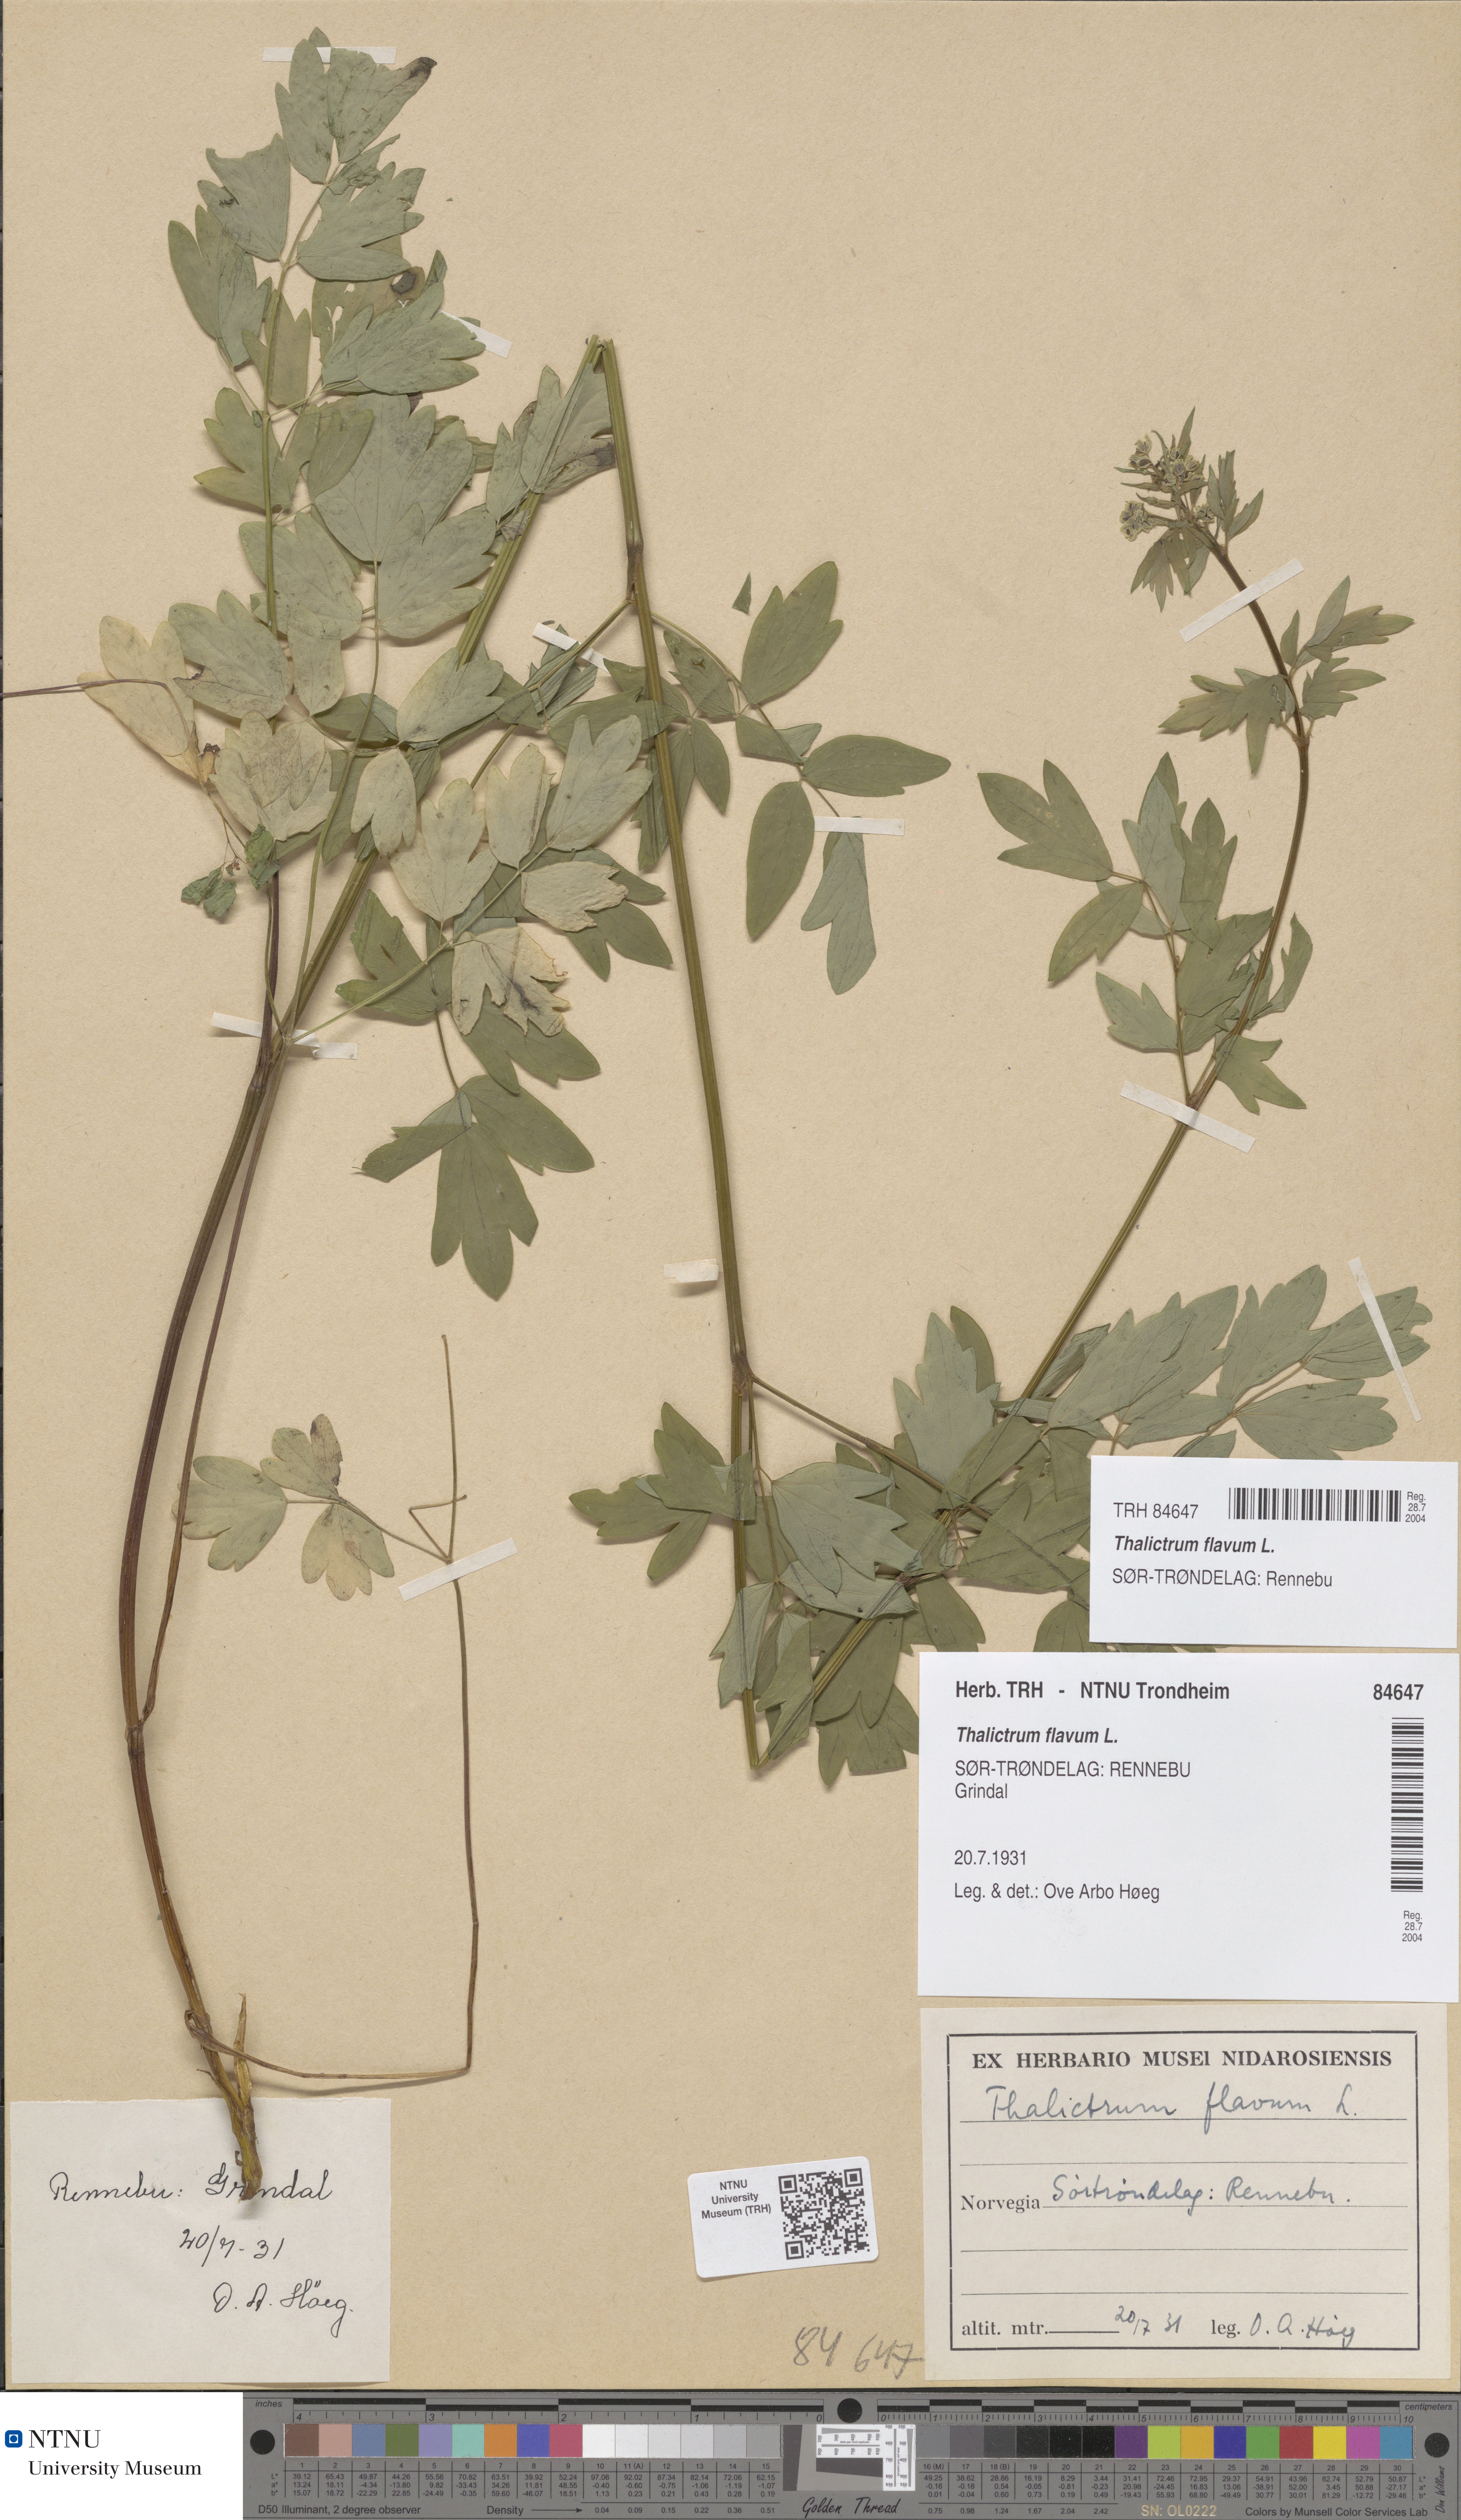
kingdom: Plantae
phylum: Tracheophyta
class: Magnoliopsida
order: Ranunculales
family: Ranunculaceae
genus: Thalictrum
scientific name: Thalictrum flavum
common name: Common meadow-rue
